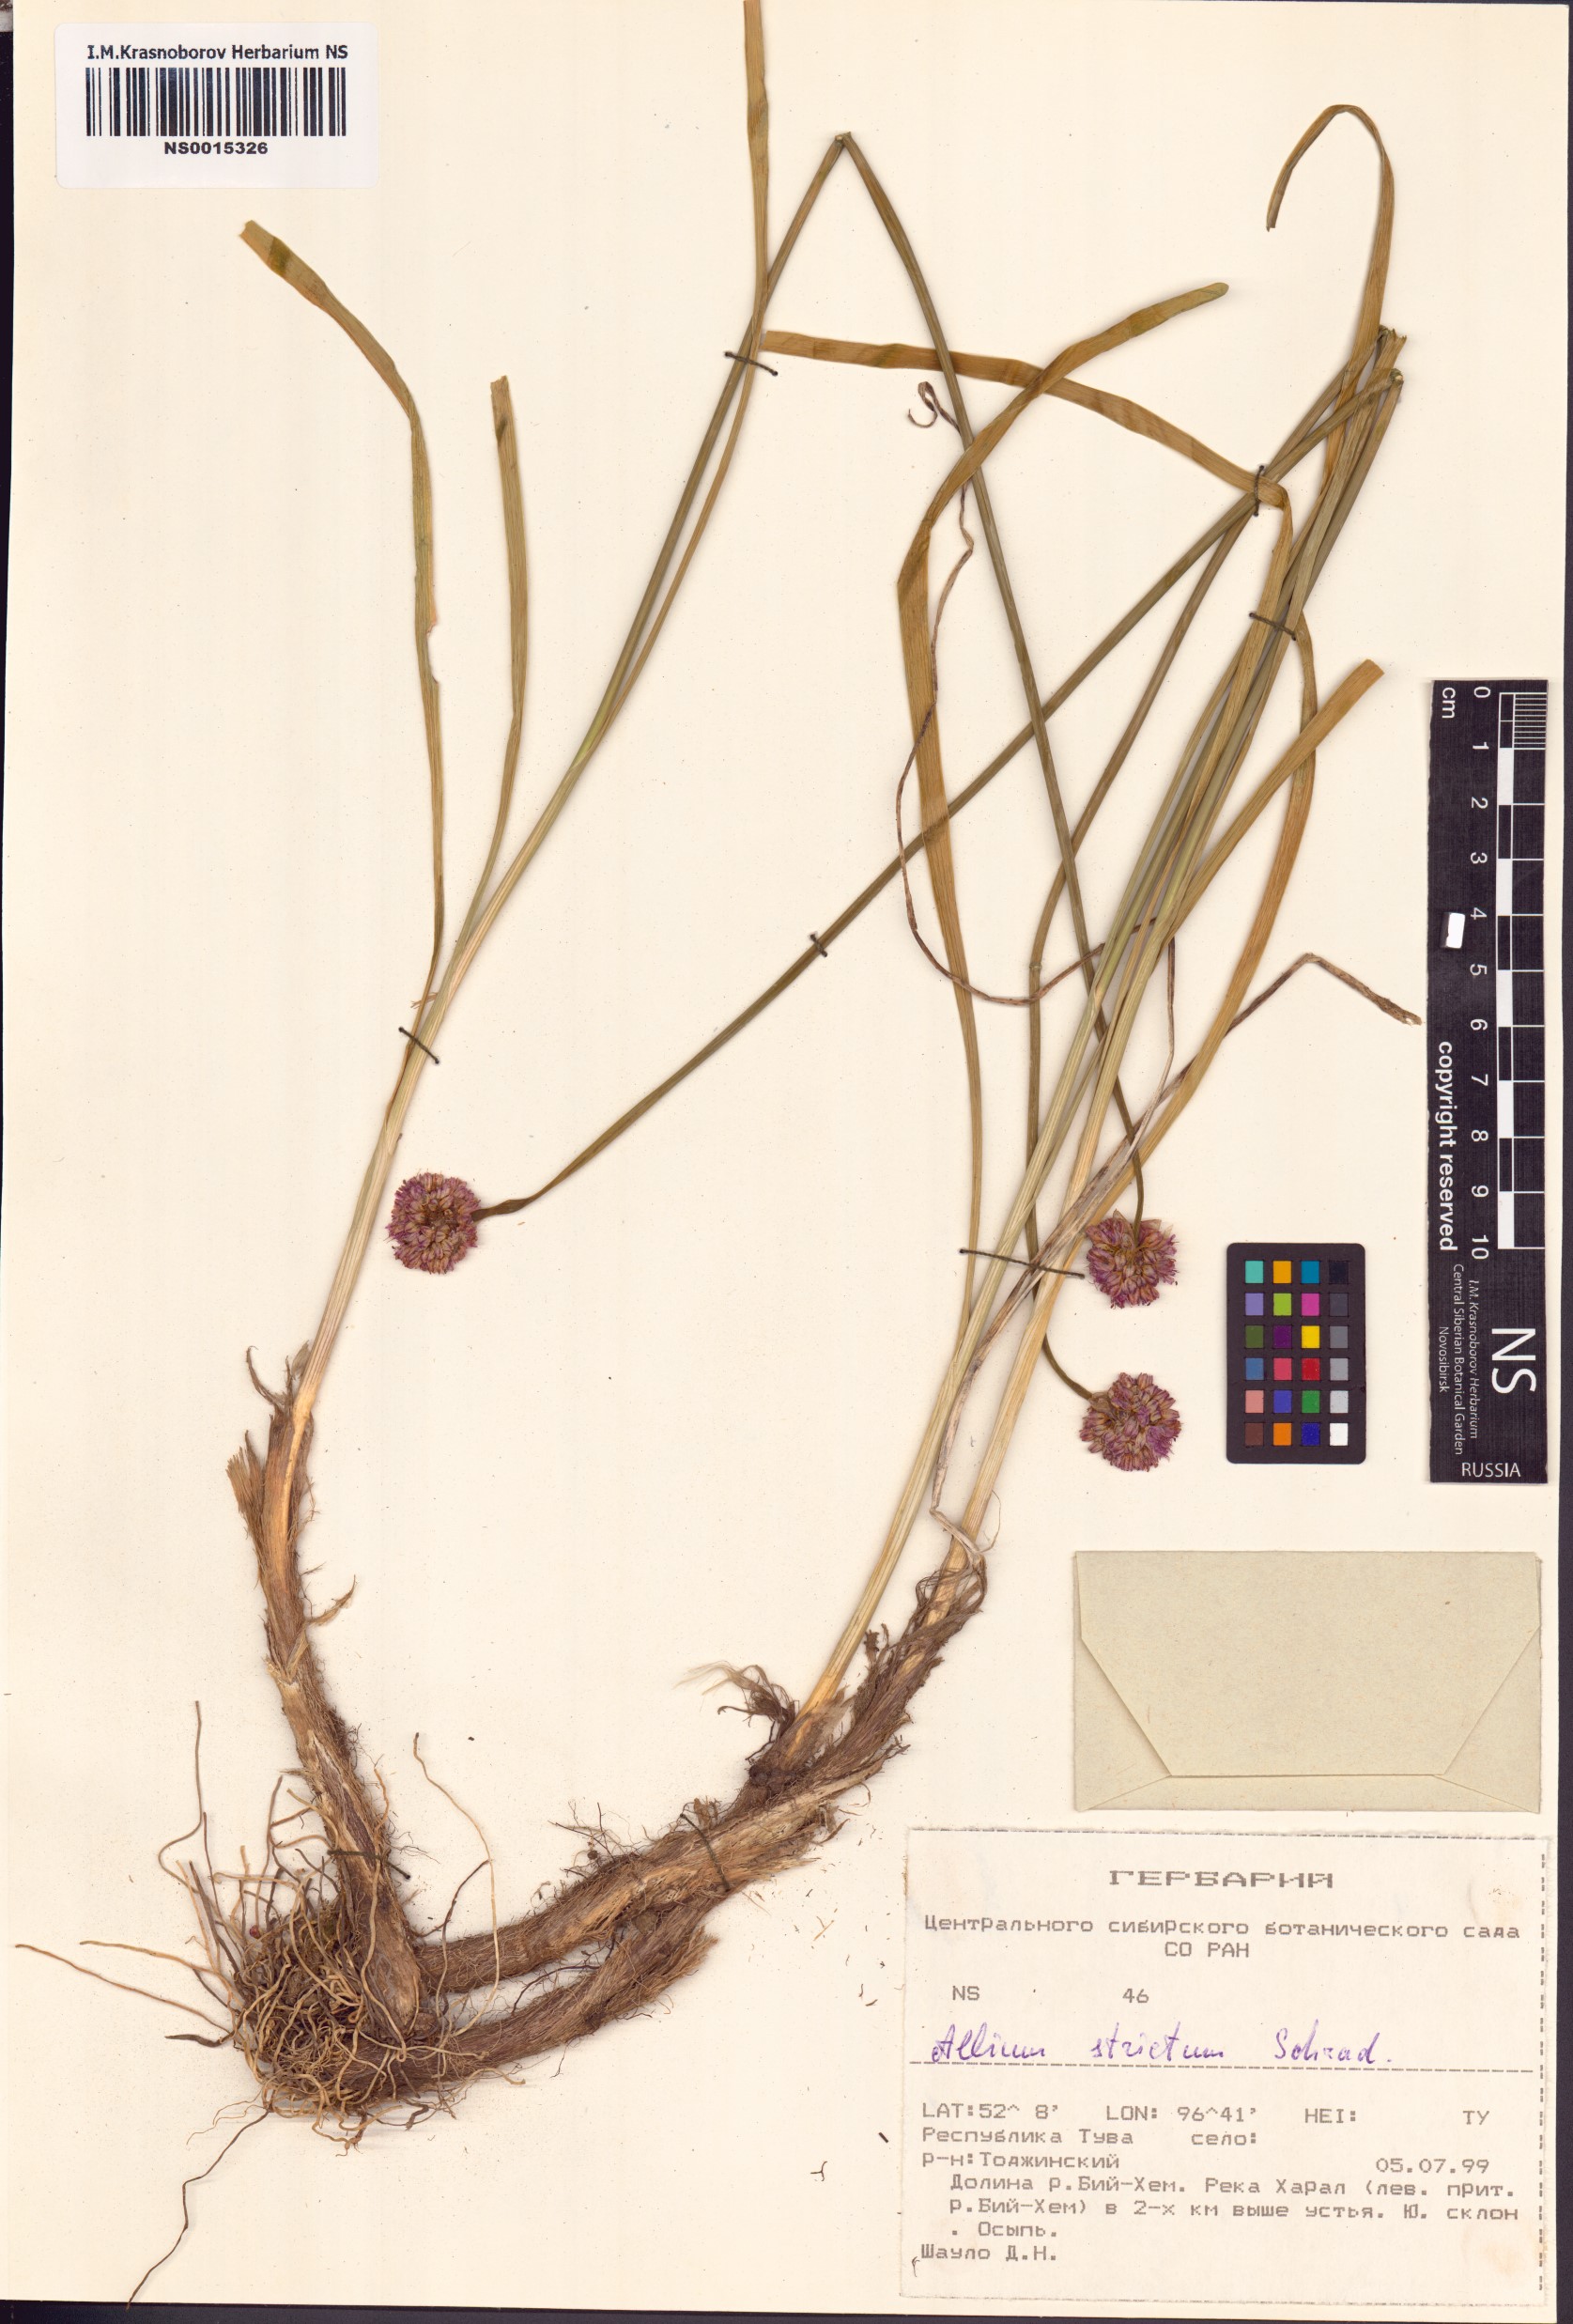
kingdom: Plantae
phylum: Tracheophyta
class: Liliopsida
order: Asparagales
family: Amaryllidaceae
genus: Allium
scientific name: Allium strictum
